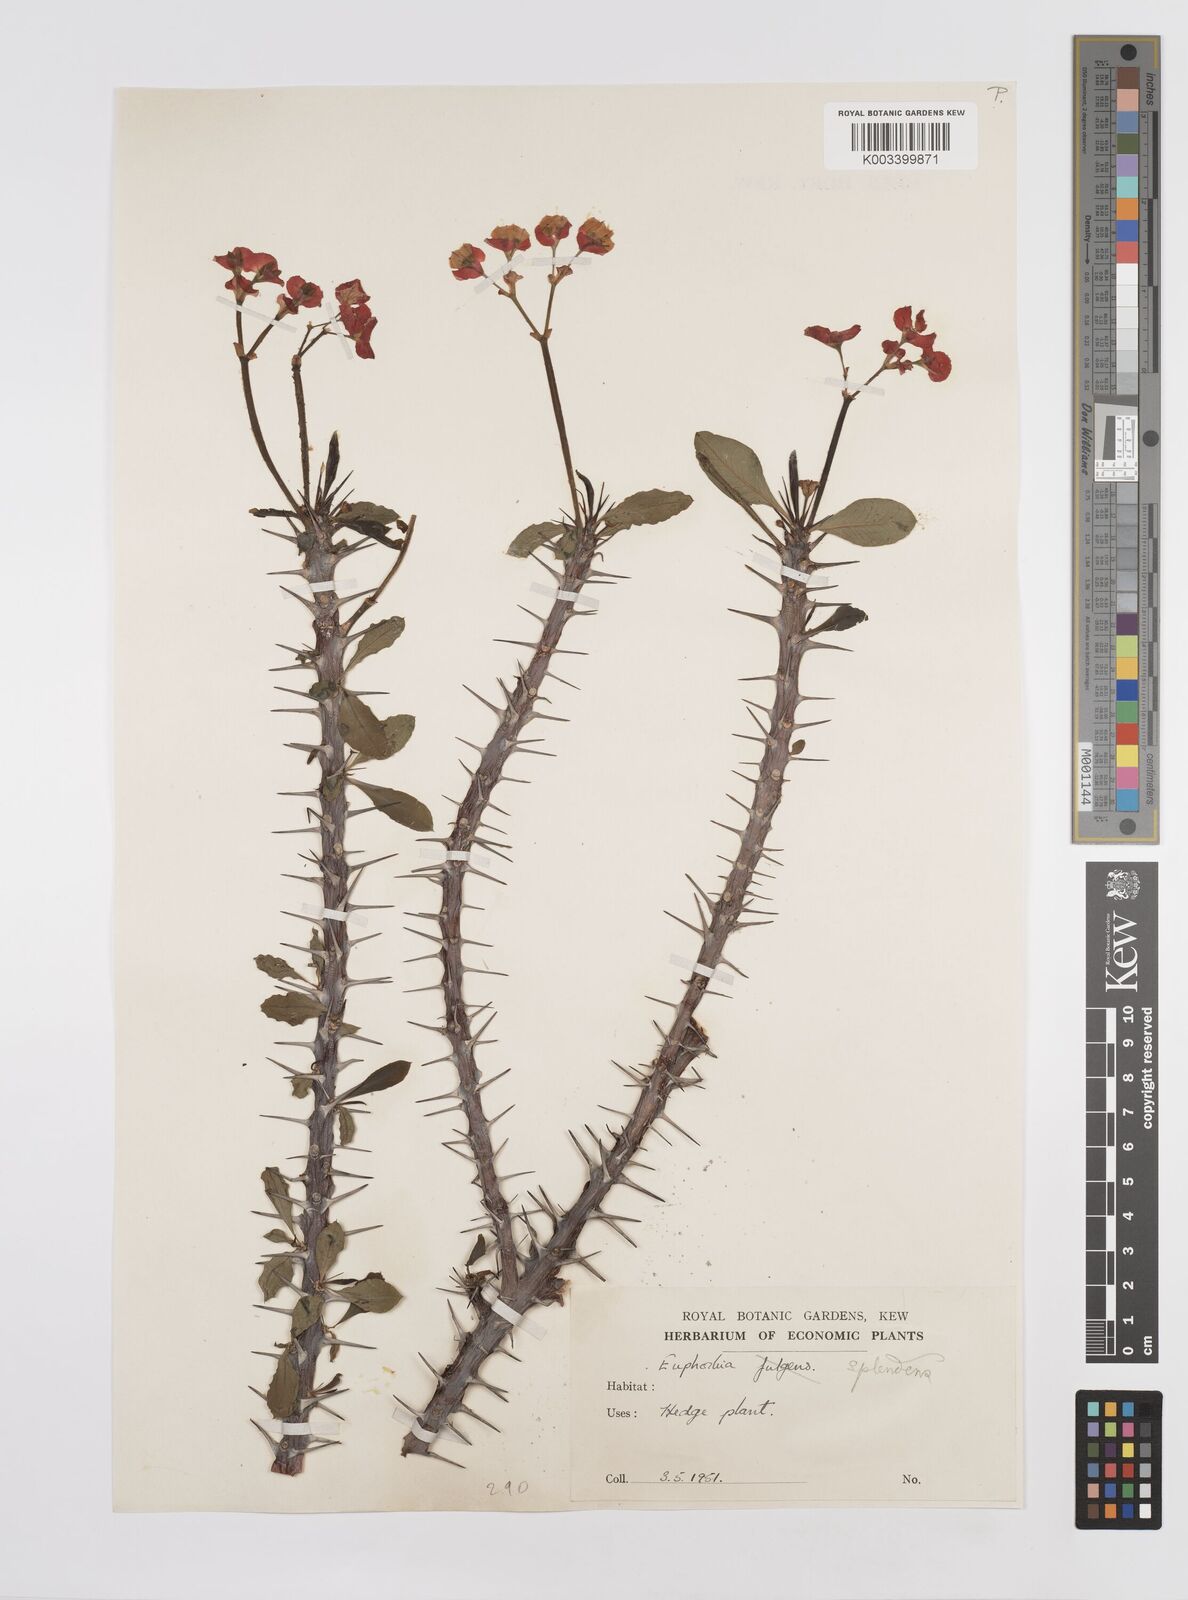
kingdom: Plantae
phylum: Tracheophyta
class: Magnoliopsida
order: Malpighiales
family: Euphorbiaceae
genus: Euphorbia
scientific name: Euphorbia milii
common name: Christplant
